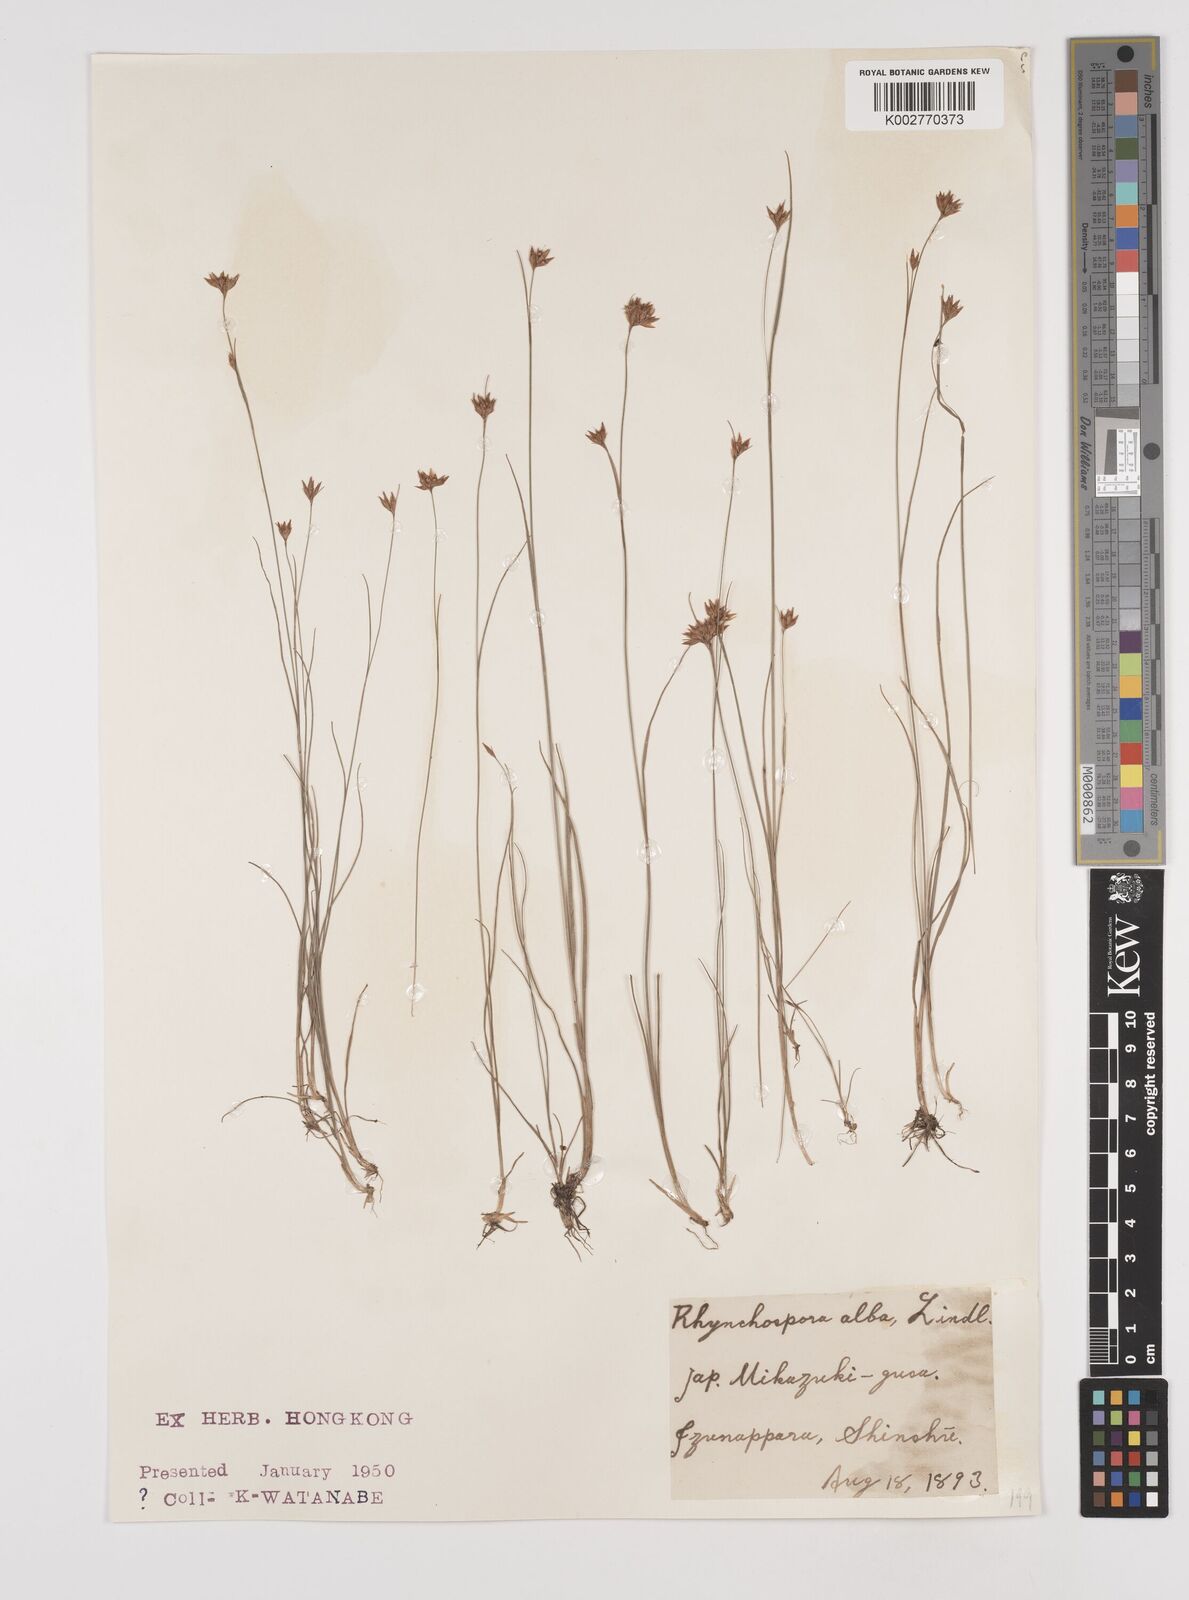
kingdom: Plantae
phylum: Tracheophyta
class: Liliopsida
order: Poales
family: Cyperaceae
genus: Rhynchospora
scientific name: Rhynchospora alba
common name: White beak-sedge
